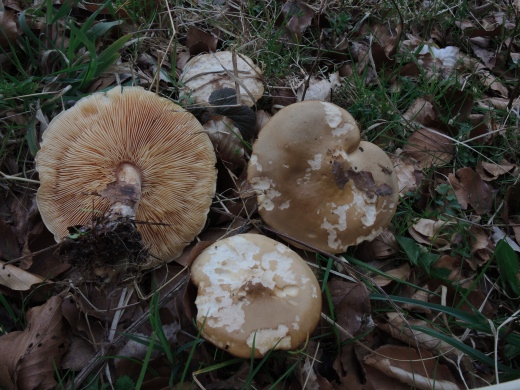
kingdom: Fungi
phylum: Basidiomycota
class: Agaricomycetes
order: Agaricales
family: Tricholomataceae
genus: Melanoleuca
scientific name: Melanoleuca cognata
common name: gyldengrå munkehat
